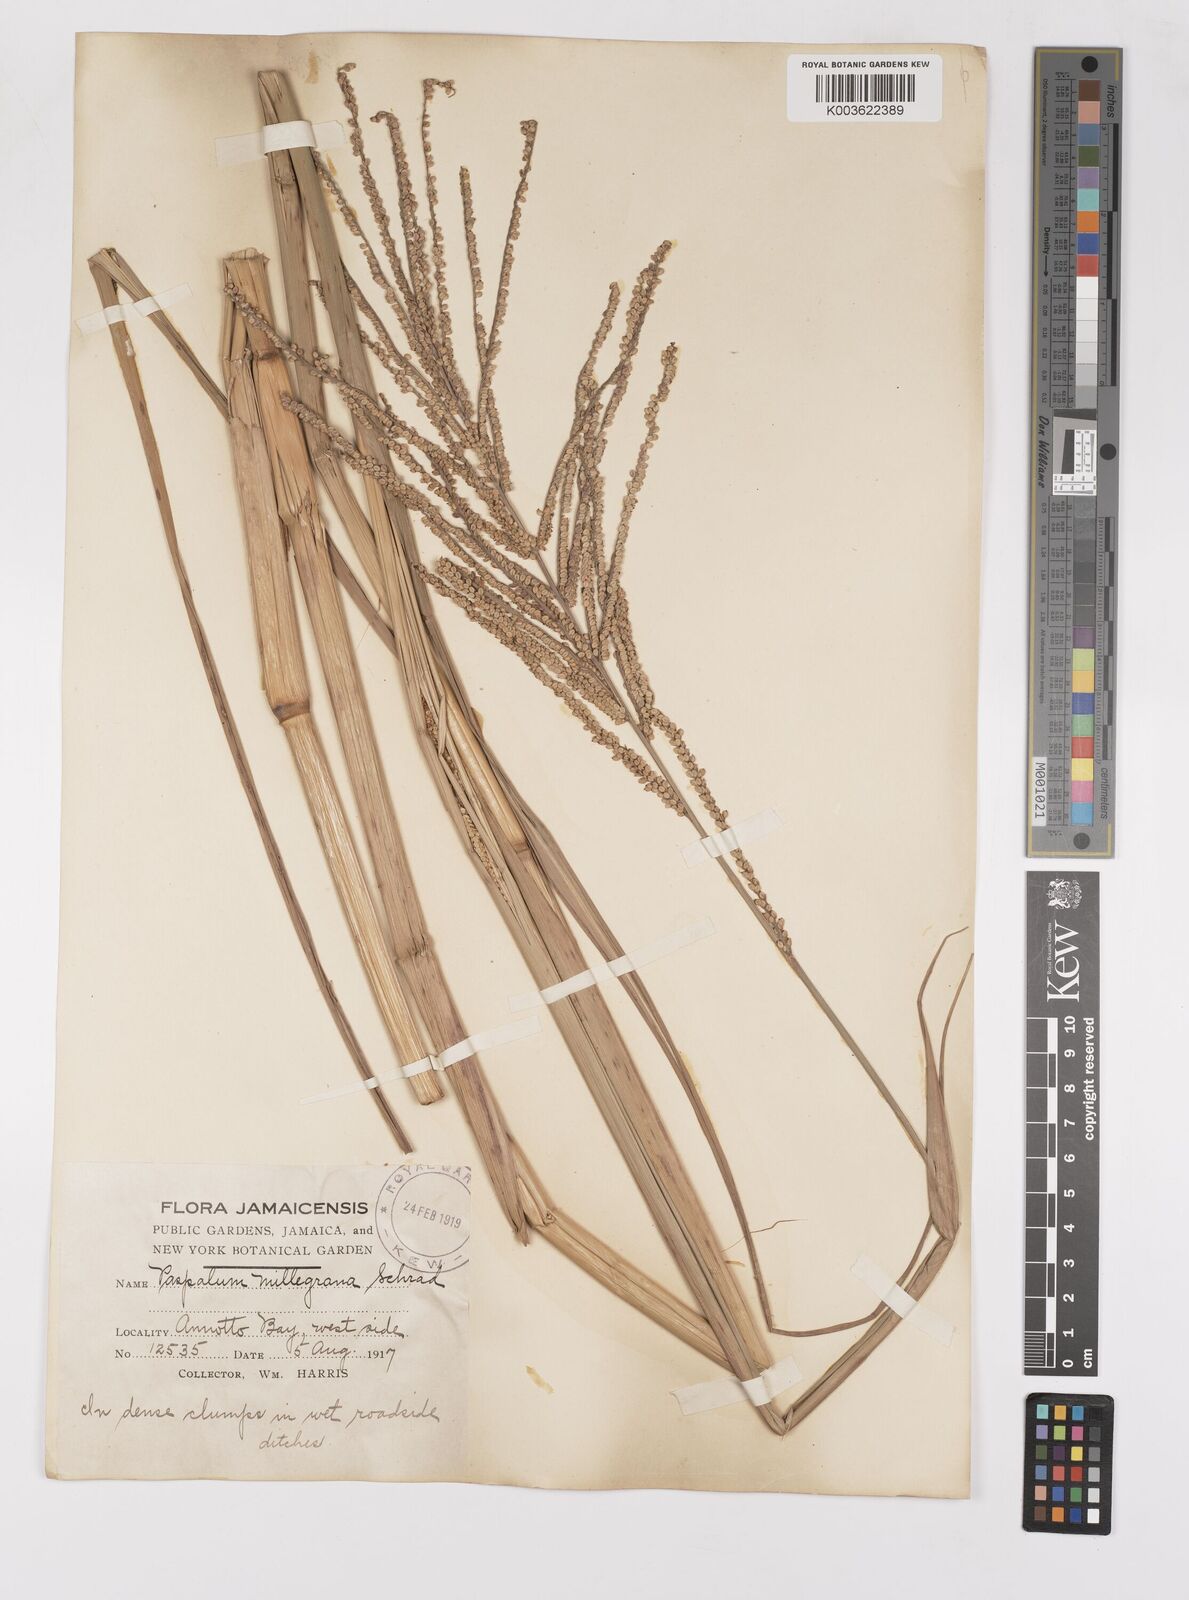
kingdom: Plantae
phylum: Tracheophyta
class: Liliopsida
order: Poales
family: Poaceae
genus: Paspalum
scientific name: Paspalum millegranum
